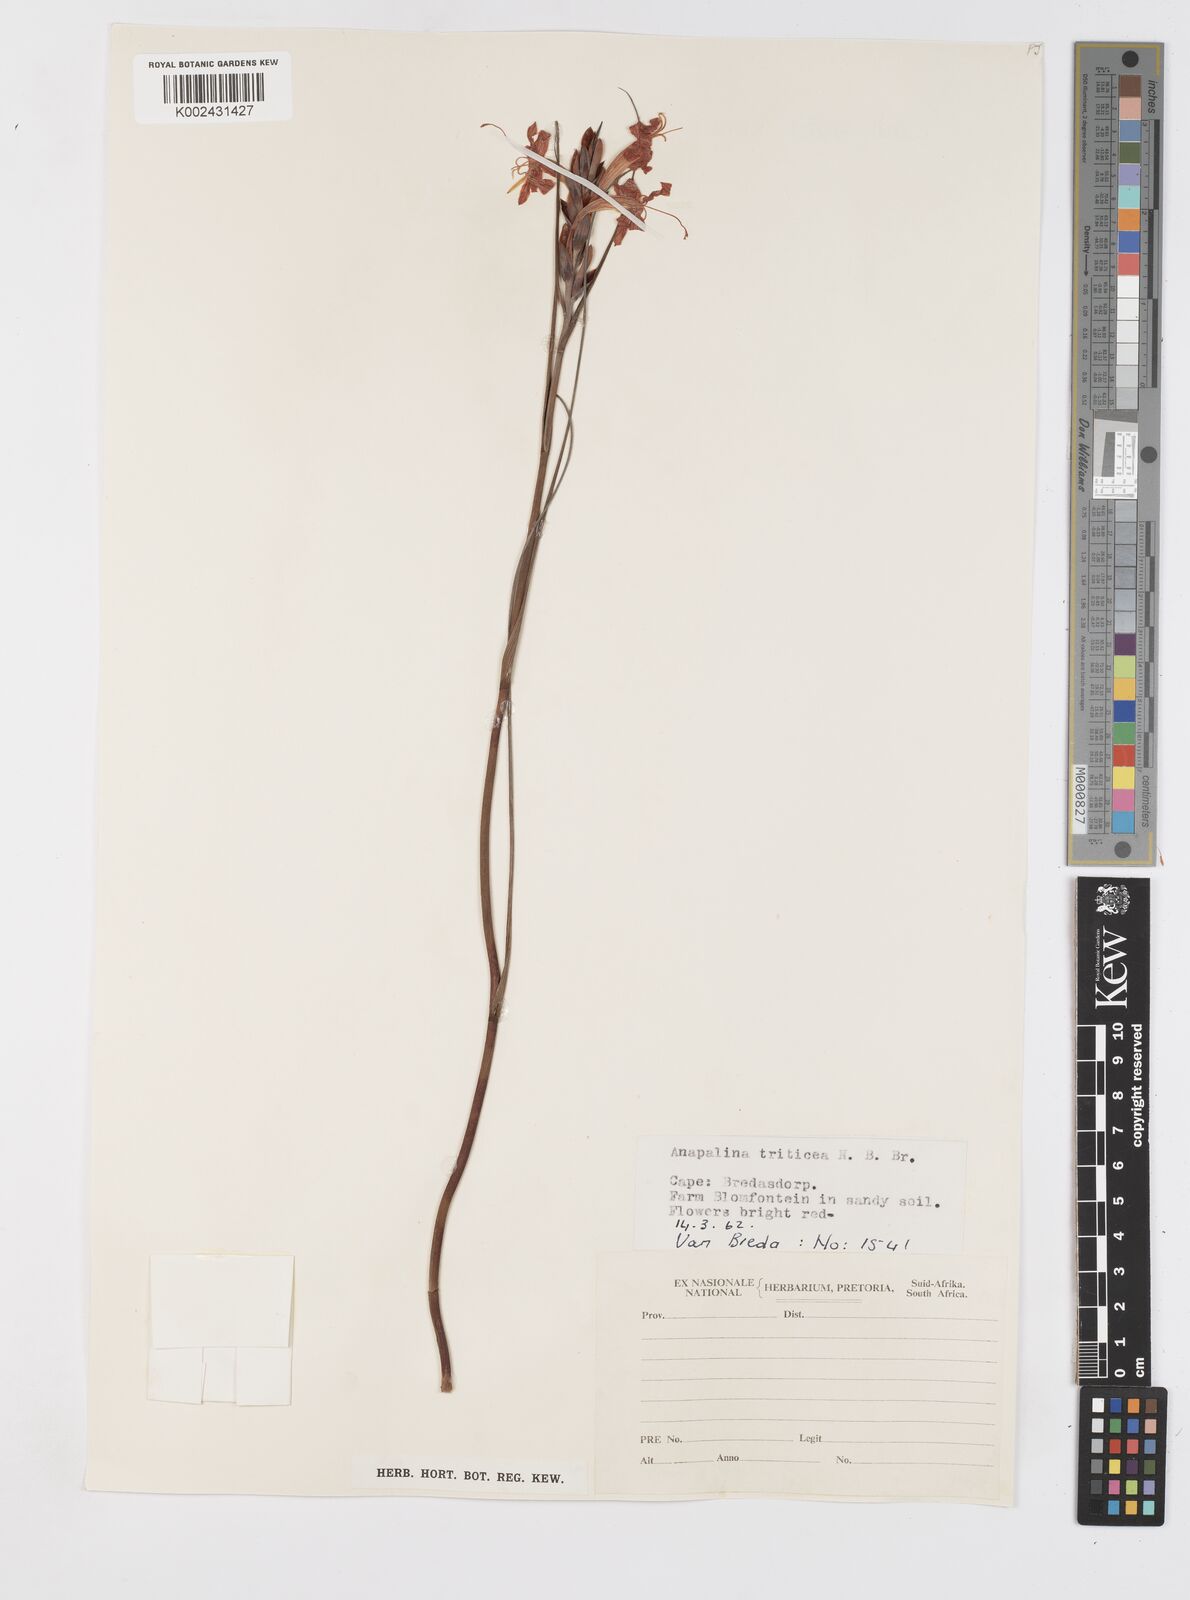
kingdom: Plantae
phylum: Tracheophyta
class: Liliopsida
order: Asparagales
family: Iridaceae
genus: Tritoniopsis
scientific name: Tritoniopsis triticea
